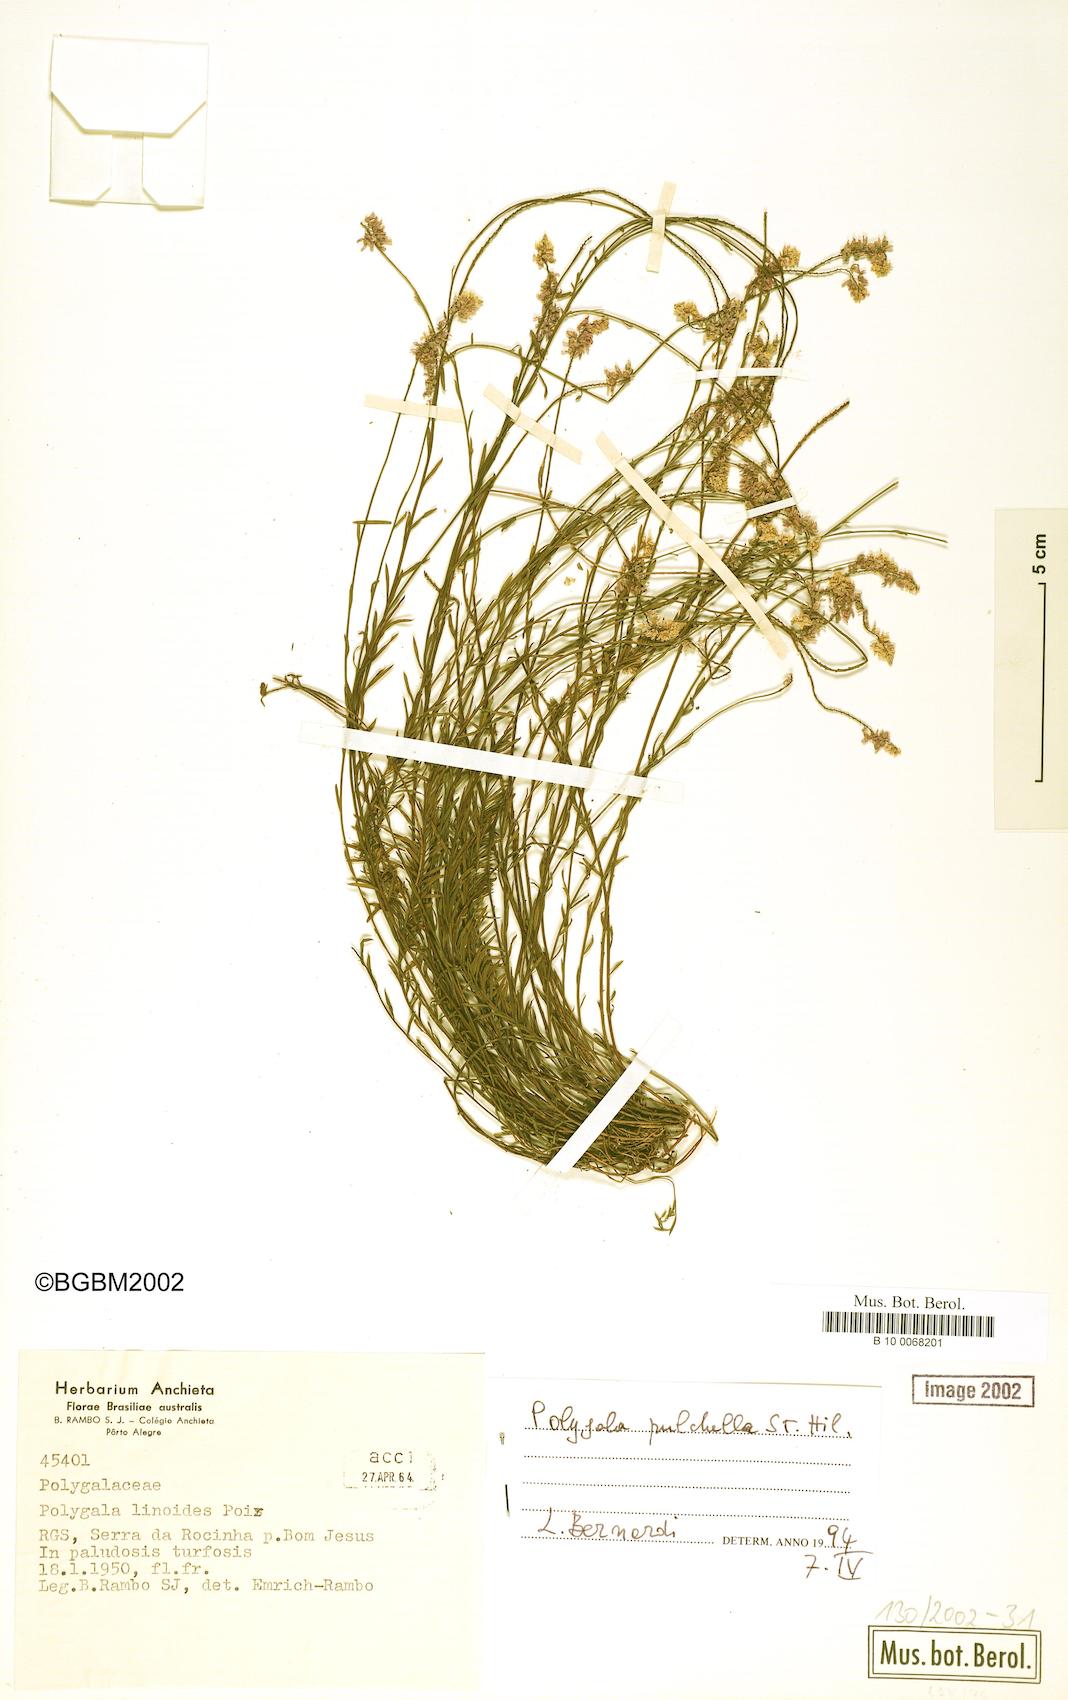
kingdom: Plantae
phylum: Tracheophyta
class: Magnoliopsida
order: Fabales
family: Polygalaceae
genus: Polygala
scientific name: Polygala pulchella
